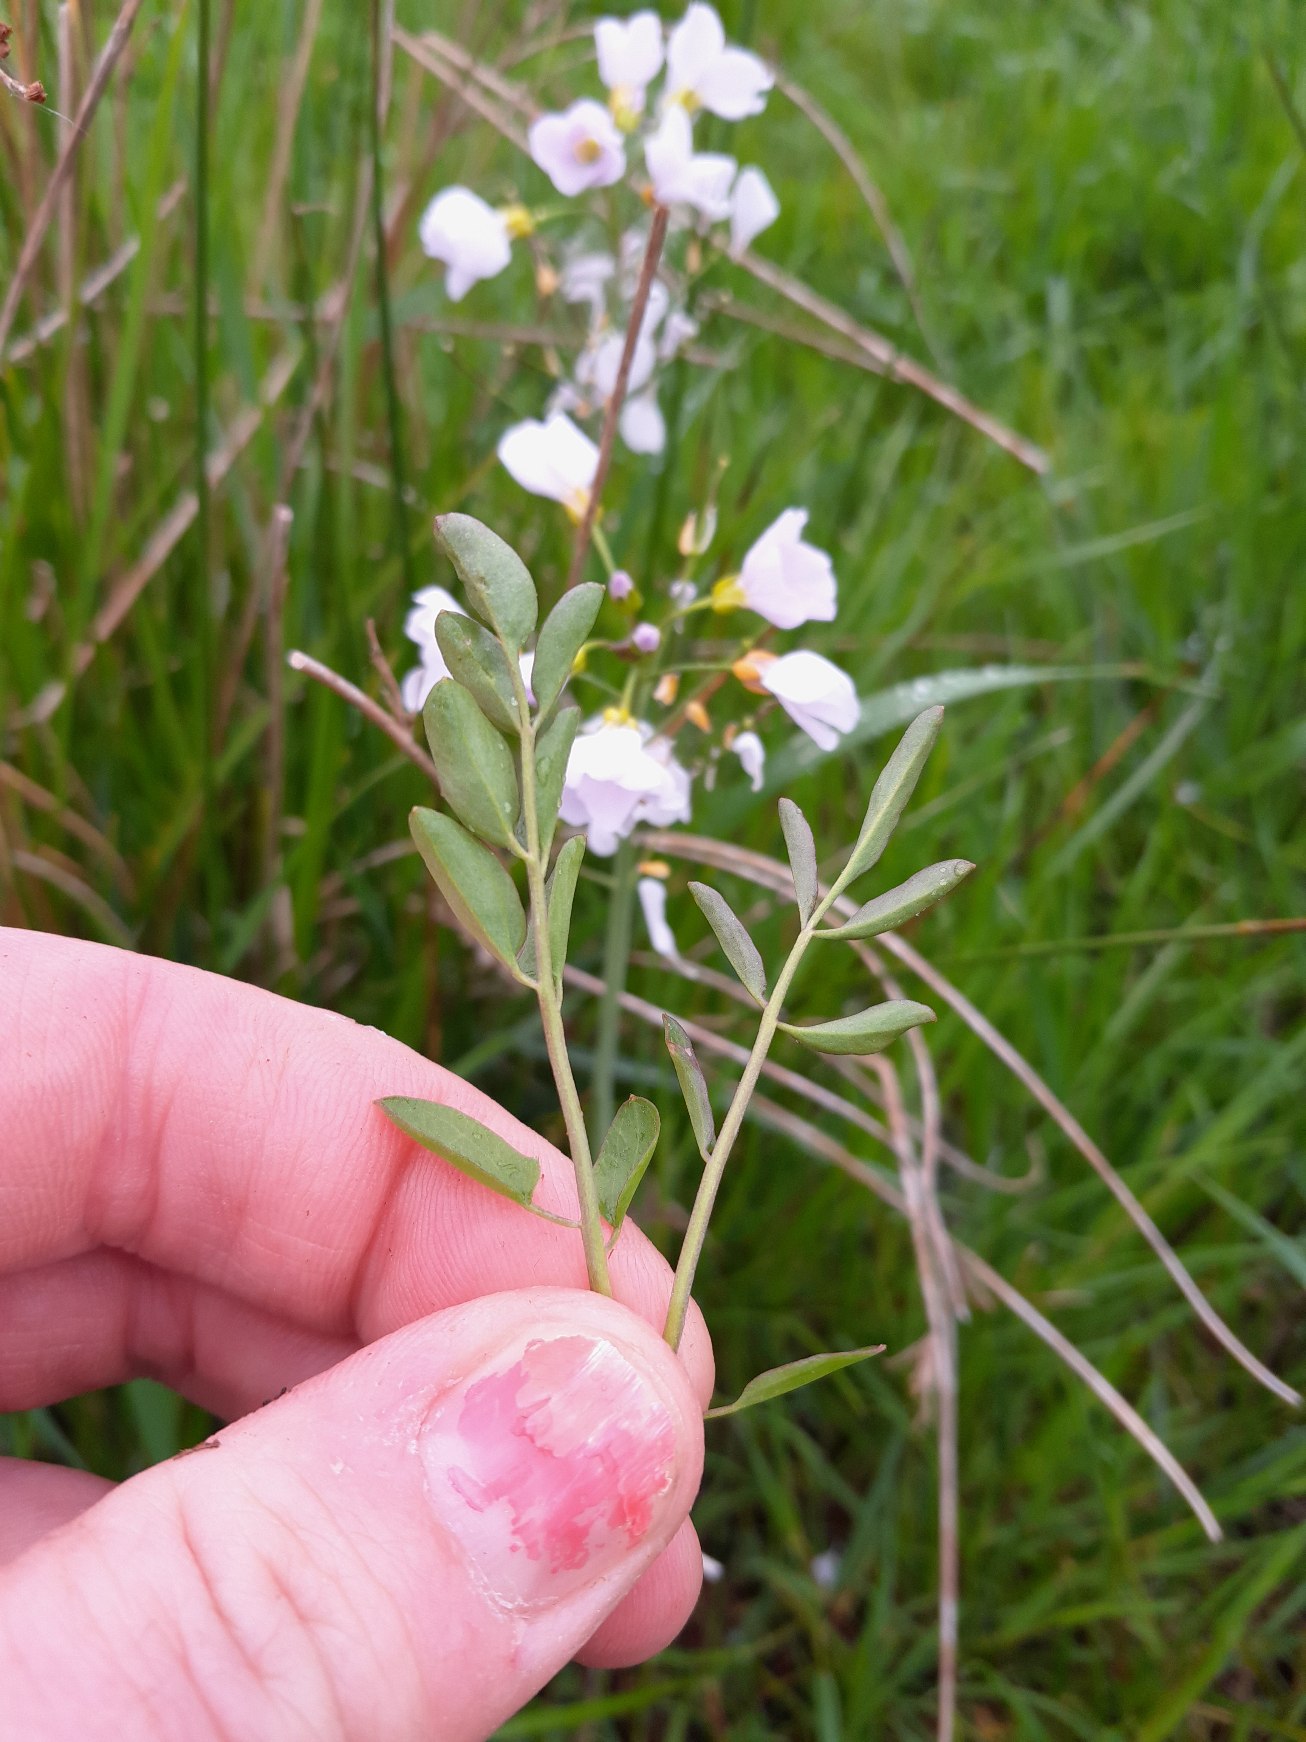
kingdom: Plantae
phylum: Tracheophyta
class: Magnoliopsida
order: Brassicales
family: Brassicaceae
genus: Cardamine
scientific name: Cardamine pratensis
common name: Engkarse
